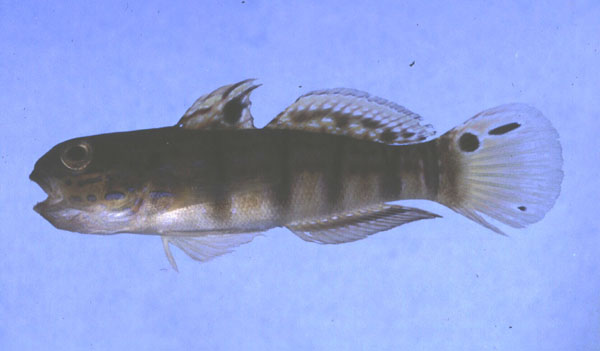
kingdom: Animalia
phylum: Chordata
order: Perciformes
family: Gobiidae
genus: Amblygobius
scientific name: Amblygobius phalaena
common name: Banded goby
